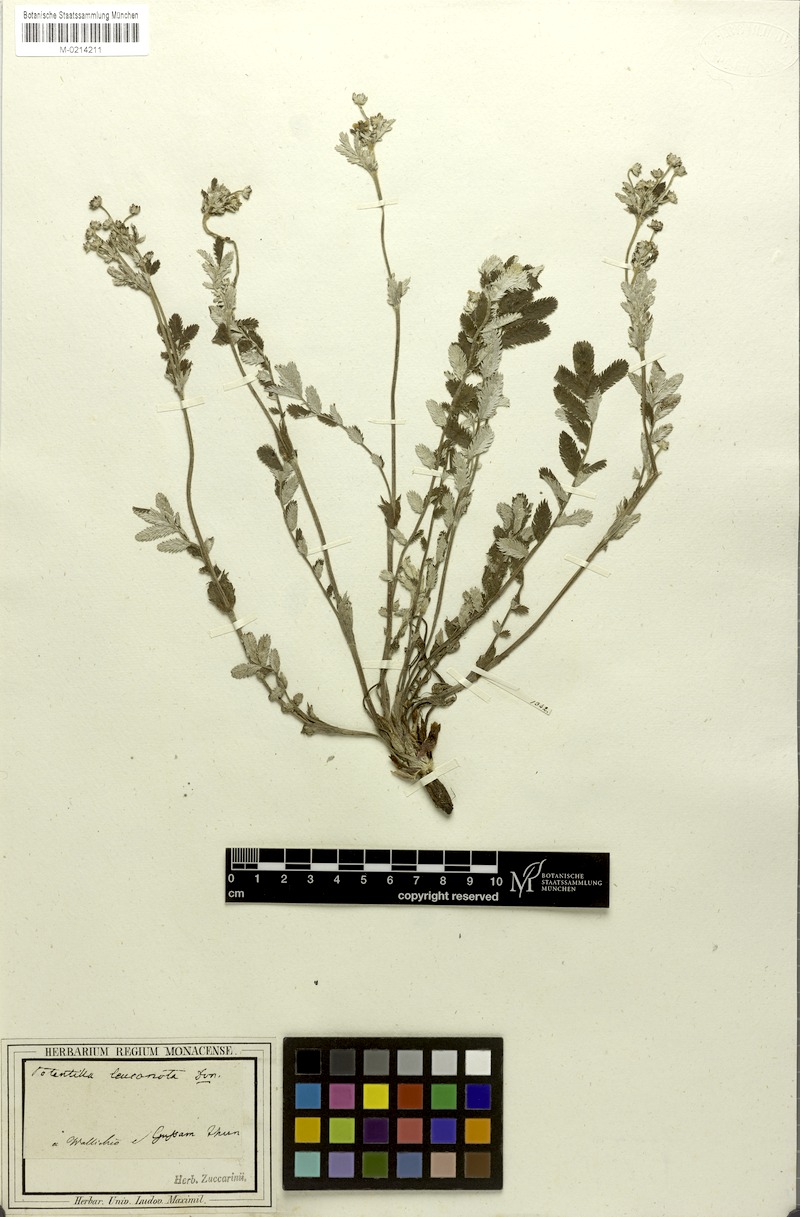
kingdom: Plantae
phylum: Tracheophyta
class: Magnoliopsida
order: Rosales
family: Rosaceae
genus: Argentina
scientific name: Argentina leuconota
